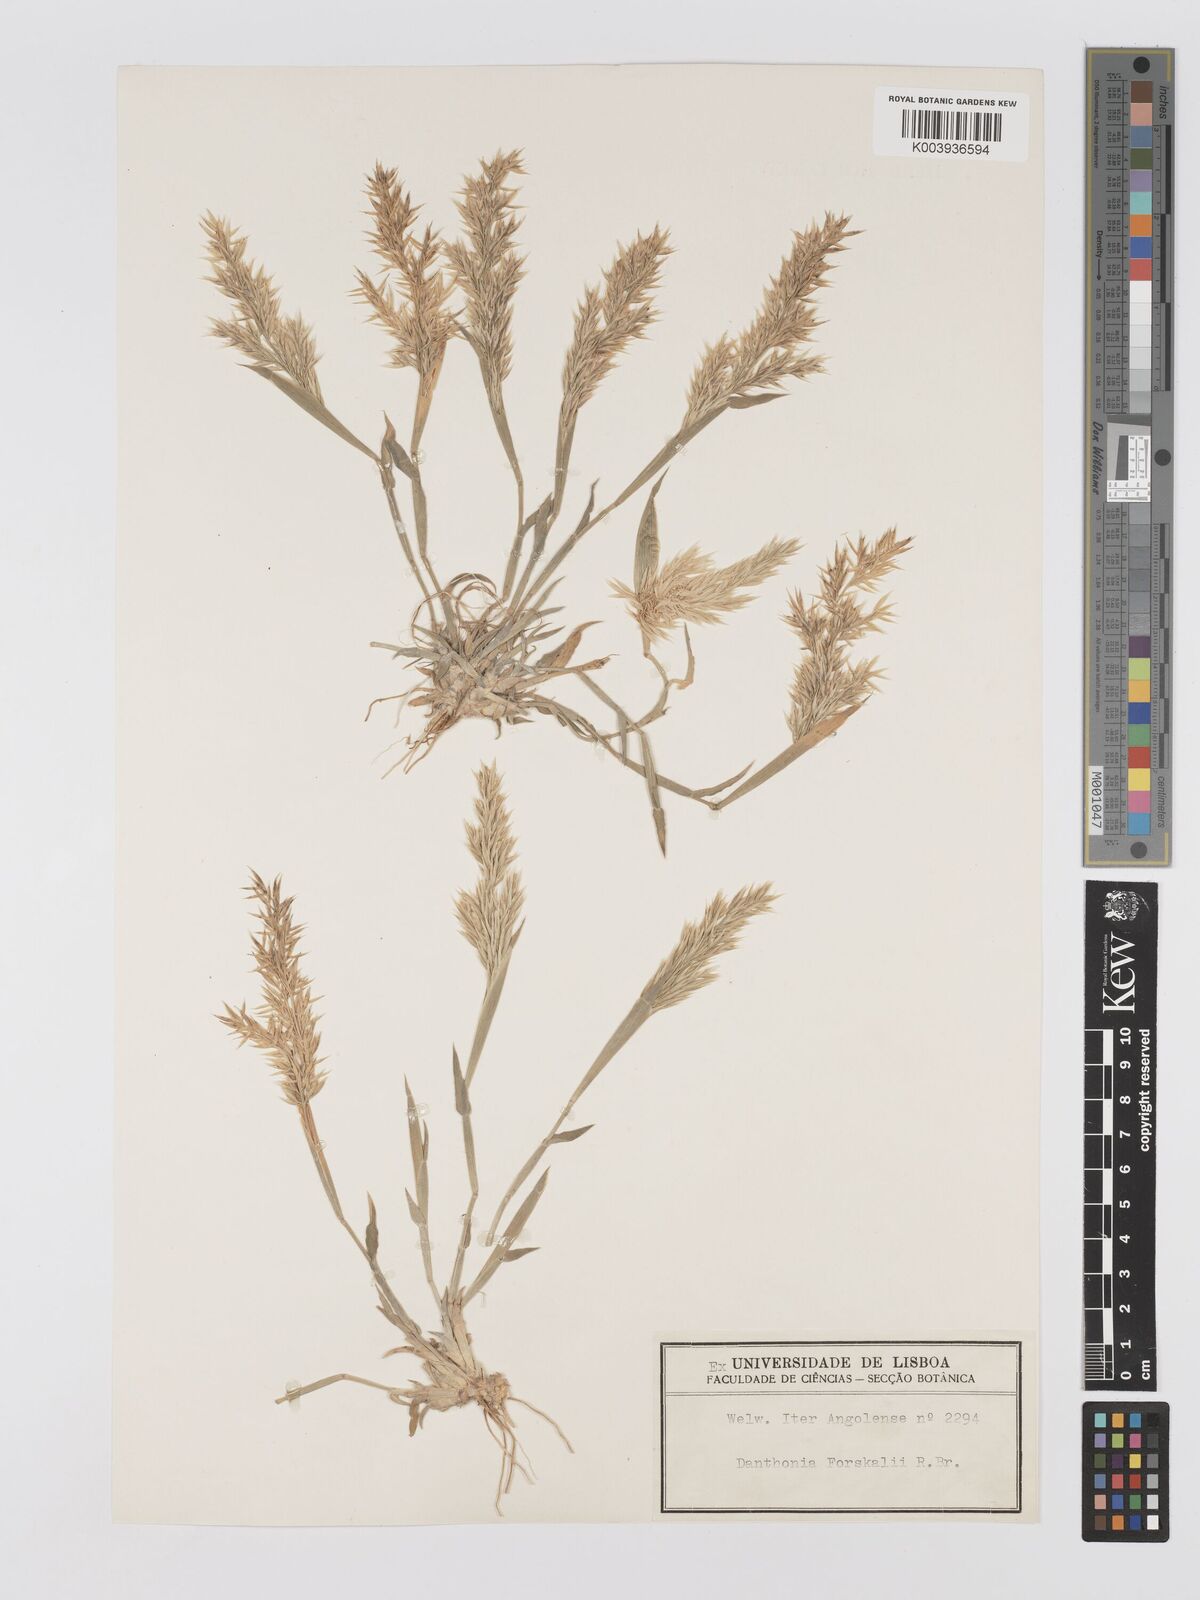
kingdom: Plantae
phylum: Tracheophyta
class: Liliopsida
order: Poales
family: Poaceae
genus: Centropodia
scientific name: Centropodia forskaolii
